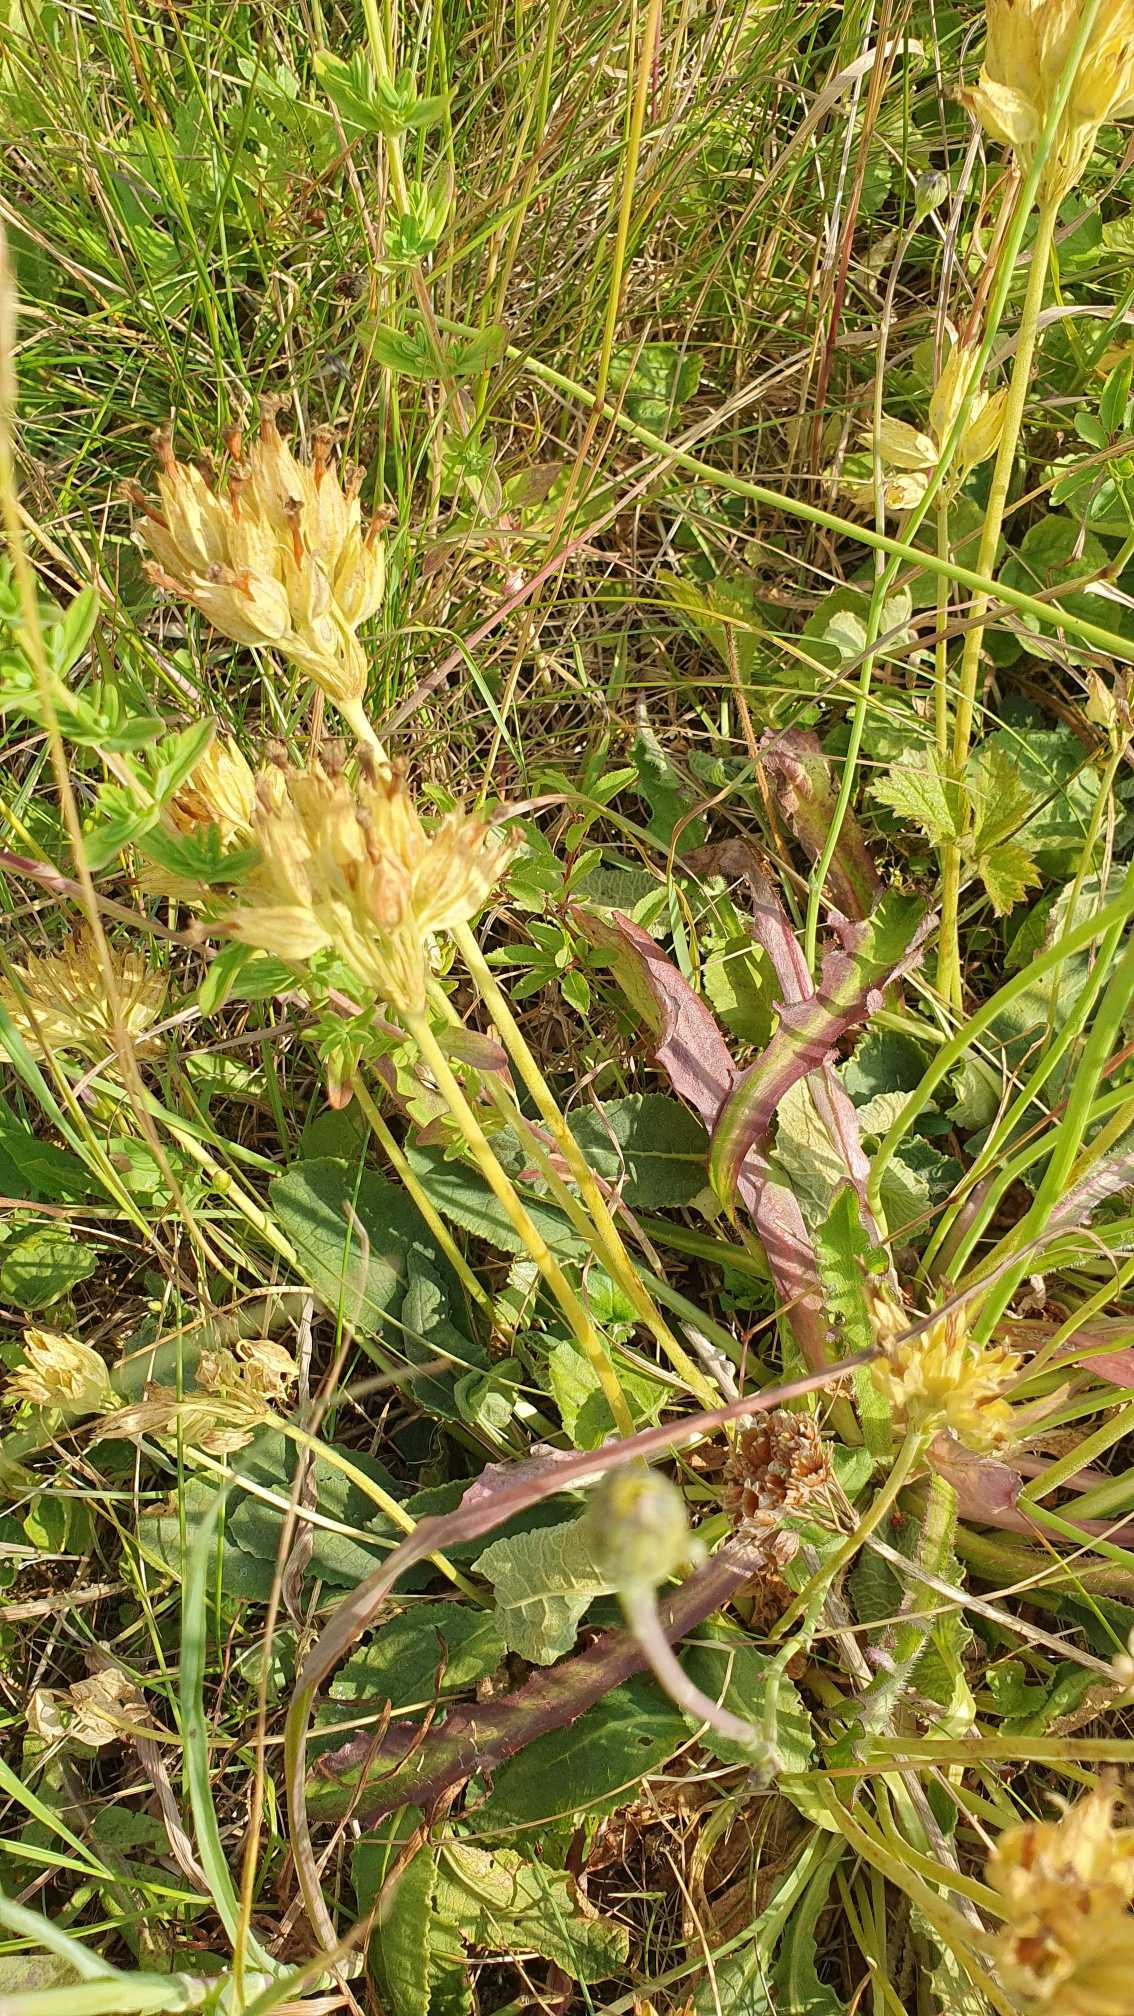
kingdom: Plantae
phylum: Tracheophyta
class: Magnoliopsida
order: Ericales
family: Primulaceae
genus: Primula
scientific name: Primula veris
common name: Hulkravet kodriver
